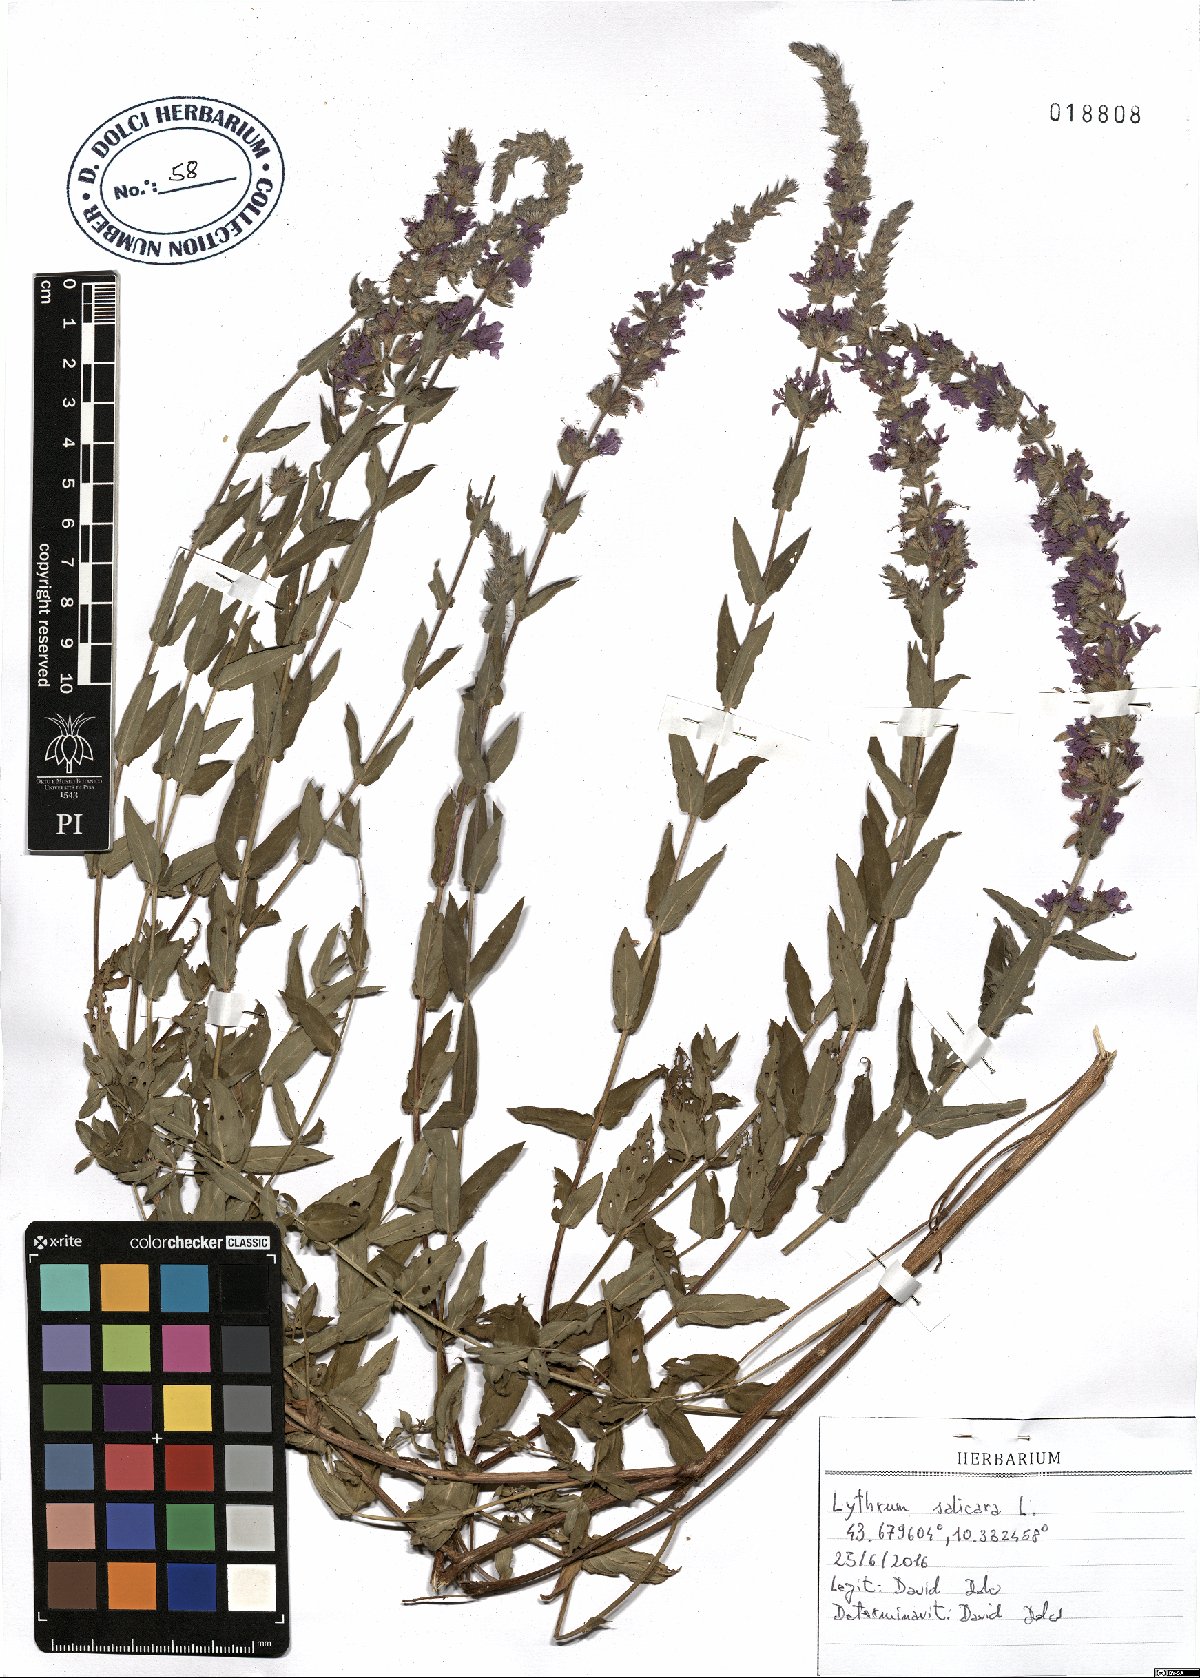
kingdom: Plantae
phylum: Tracheophyta
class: Magnoliopsida
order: Myrtales
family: Lythraceae
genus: Lythrum
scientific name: Lythrum salicaria
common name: Purple loosestrife
